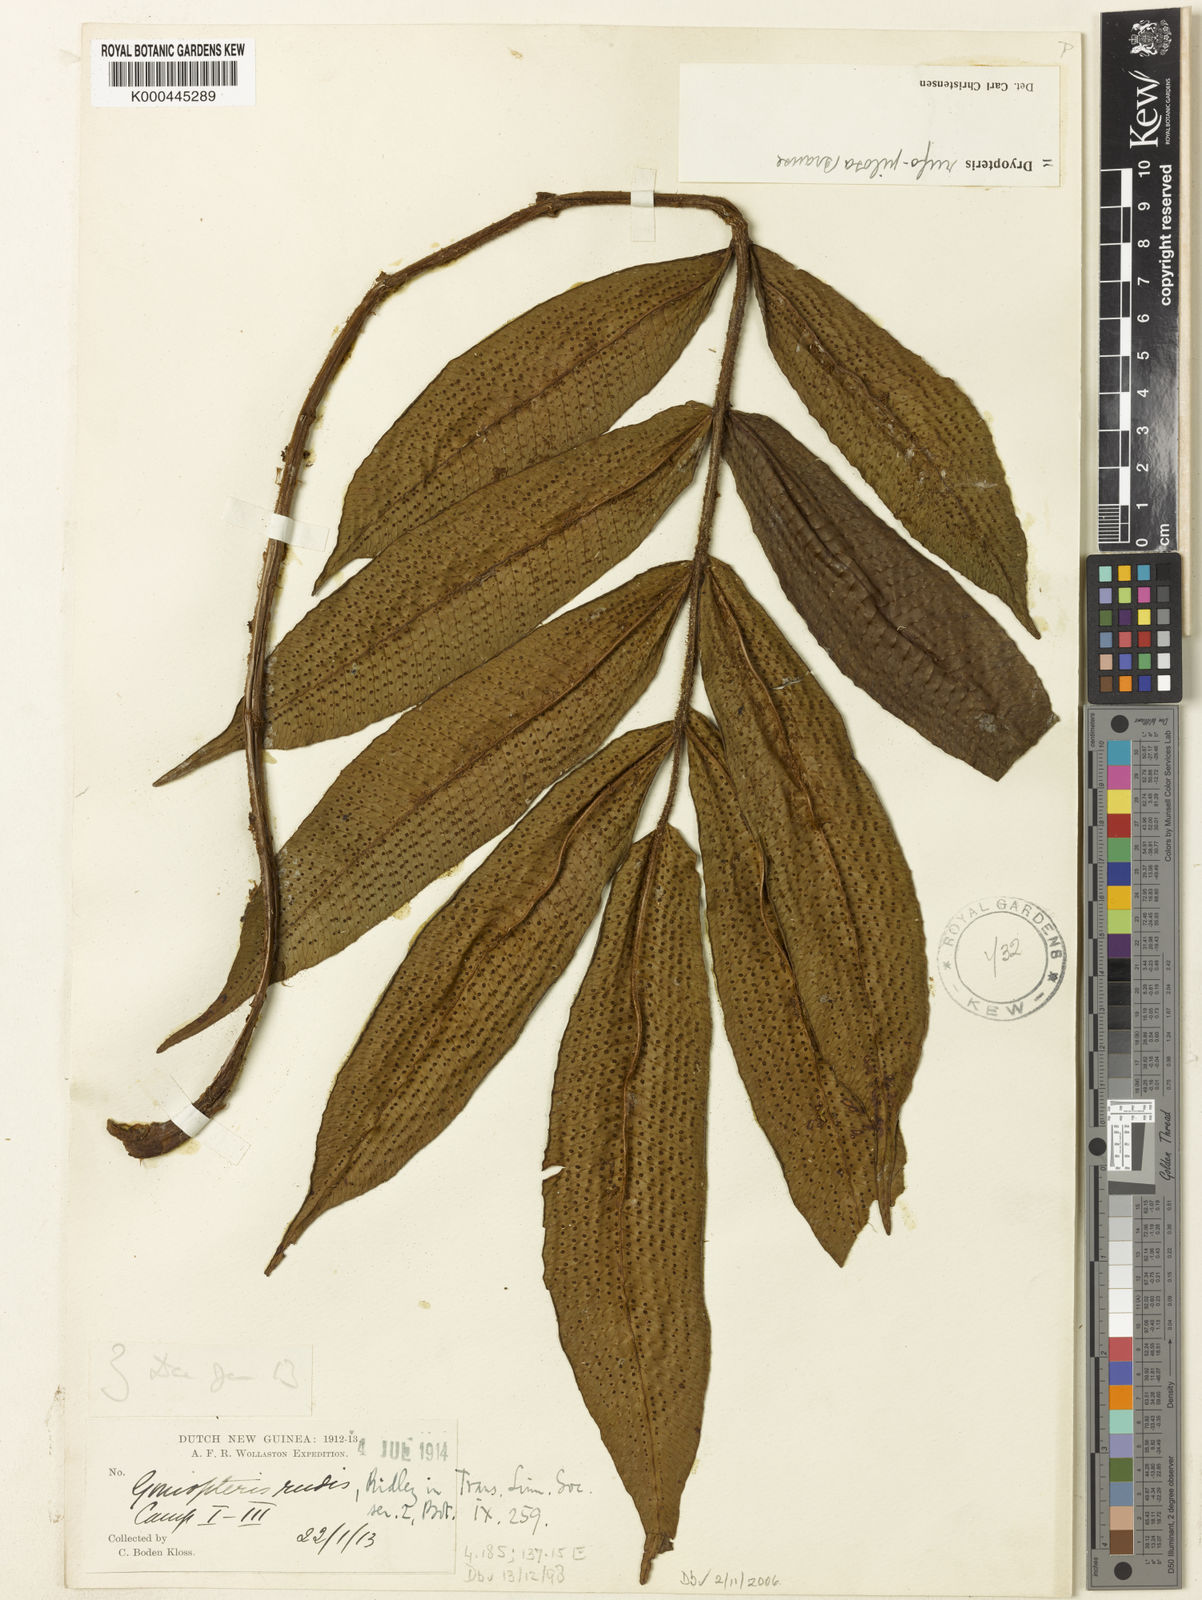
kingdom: Plantae
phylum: Tracheophyta
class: Polypodiopsida
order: Polypodiales
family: Thelypteridaceae
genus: Sphaerostephanos
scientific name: Sphaerostephanos rudis
